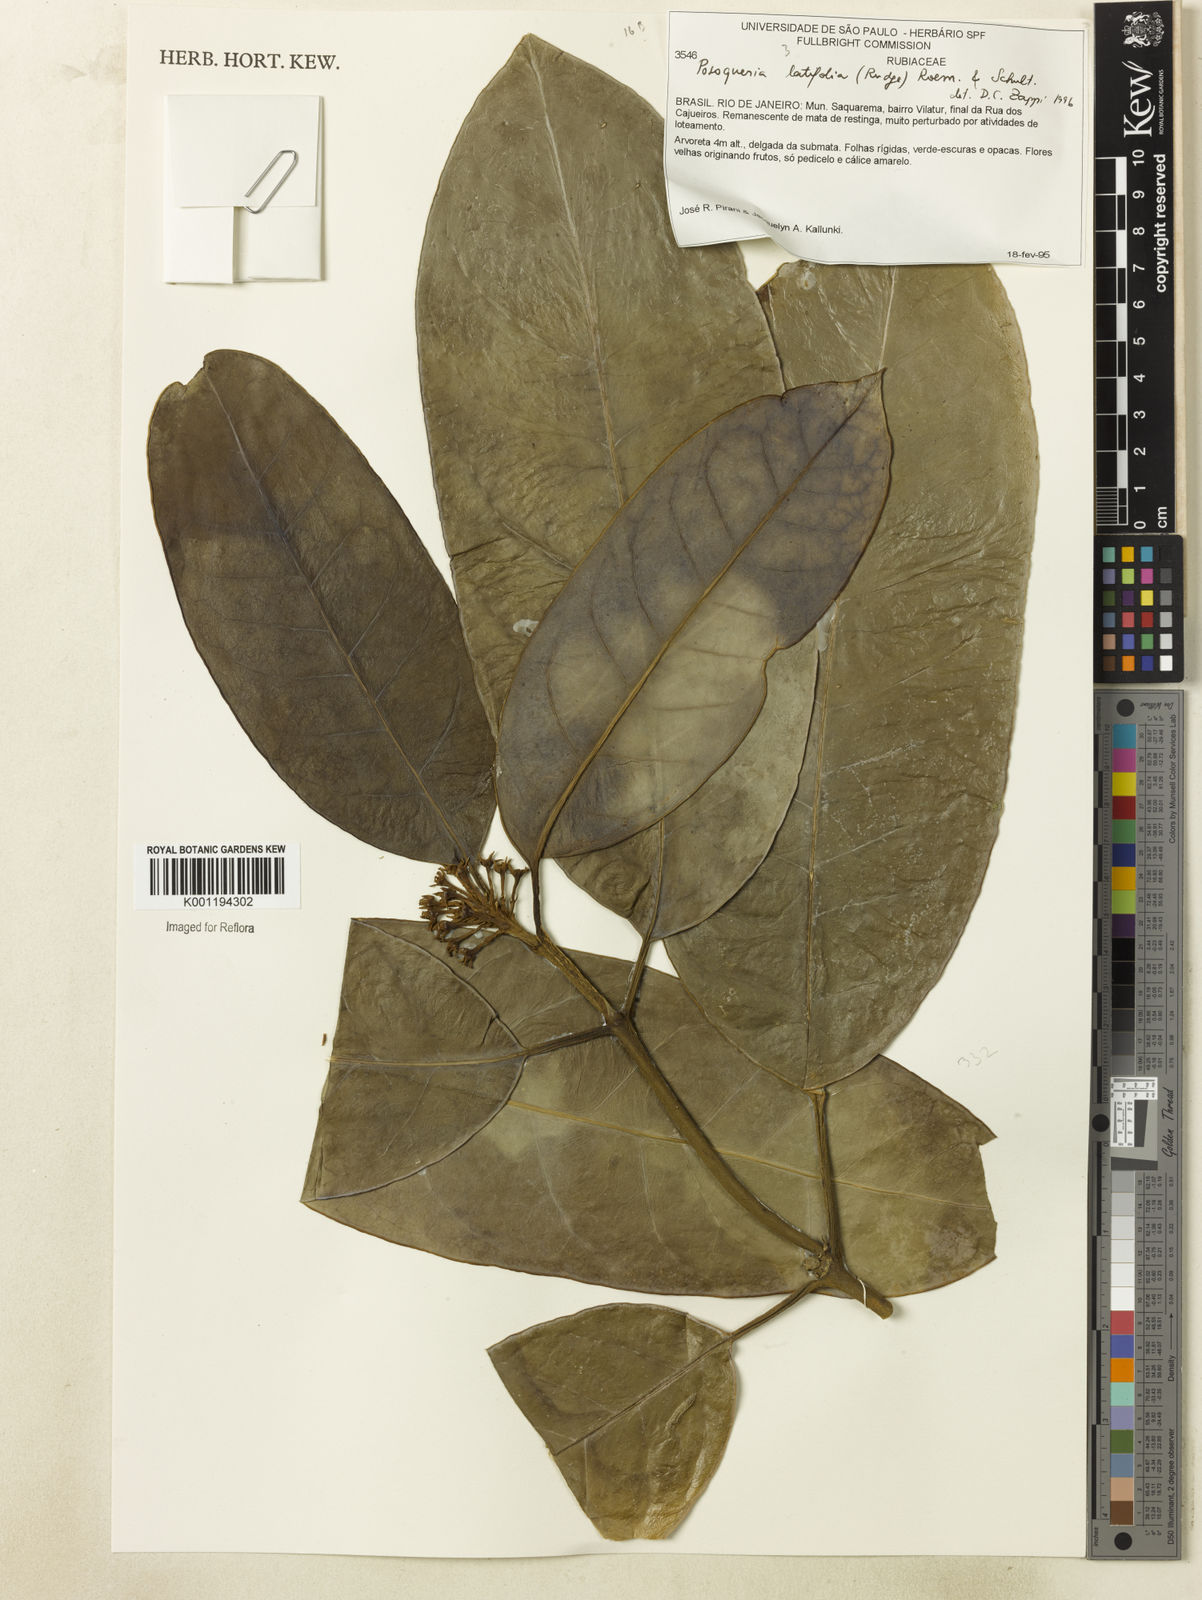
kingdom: Plantae
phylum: Tracheophyta
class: Magnoliopsida
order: Gentianales
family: Rubiaceae
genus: Posoqueria
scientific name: Posoqueria latifolia
